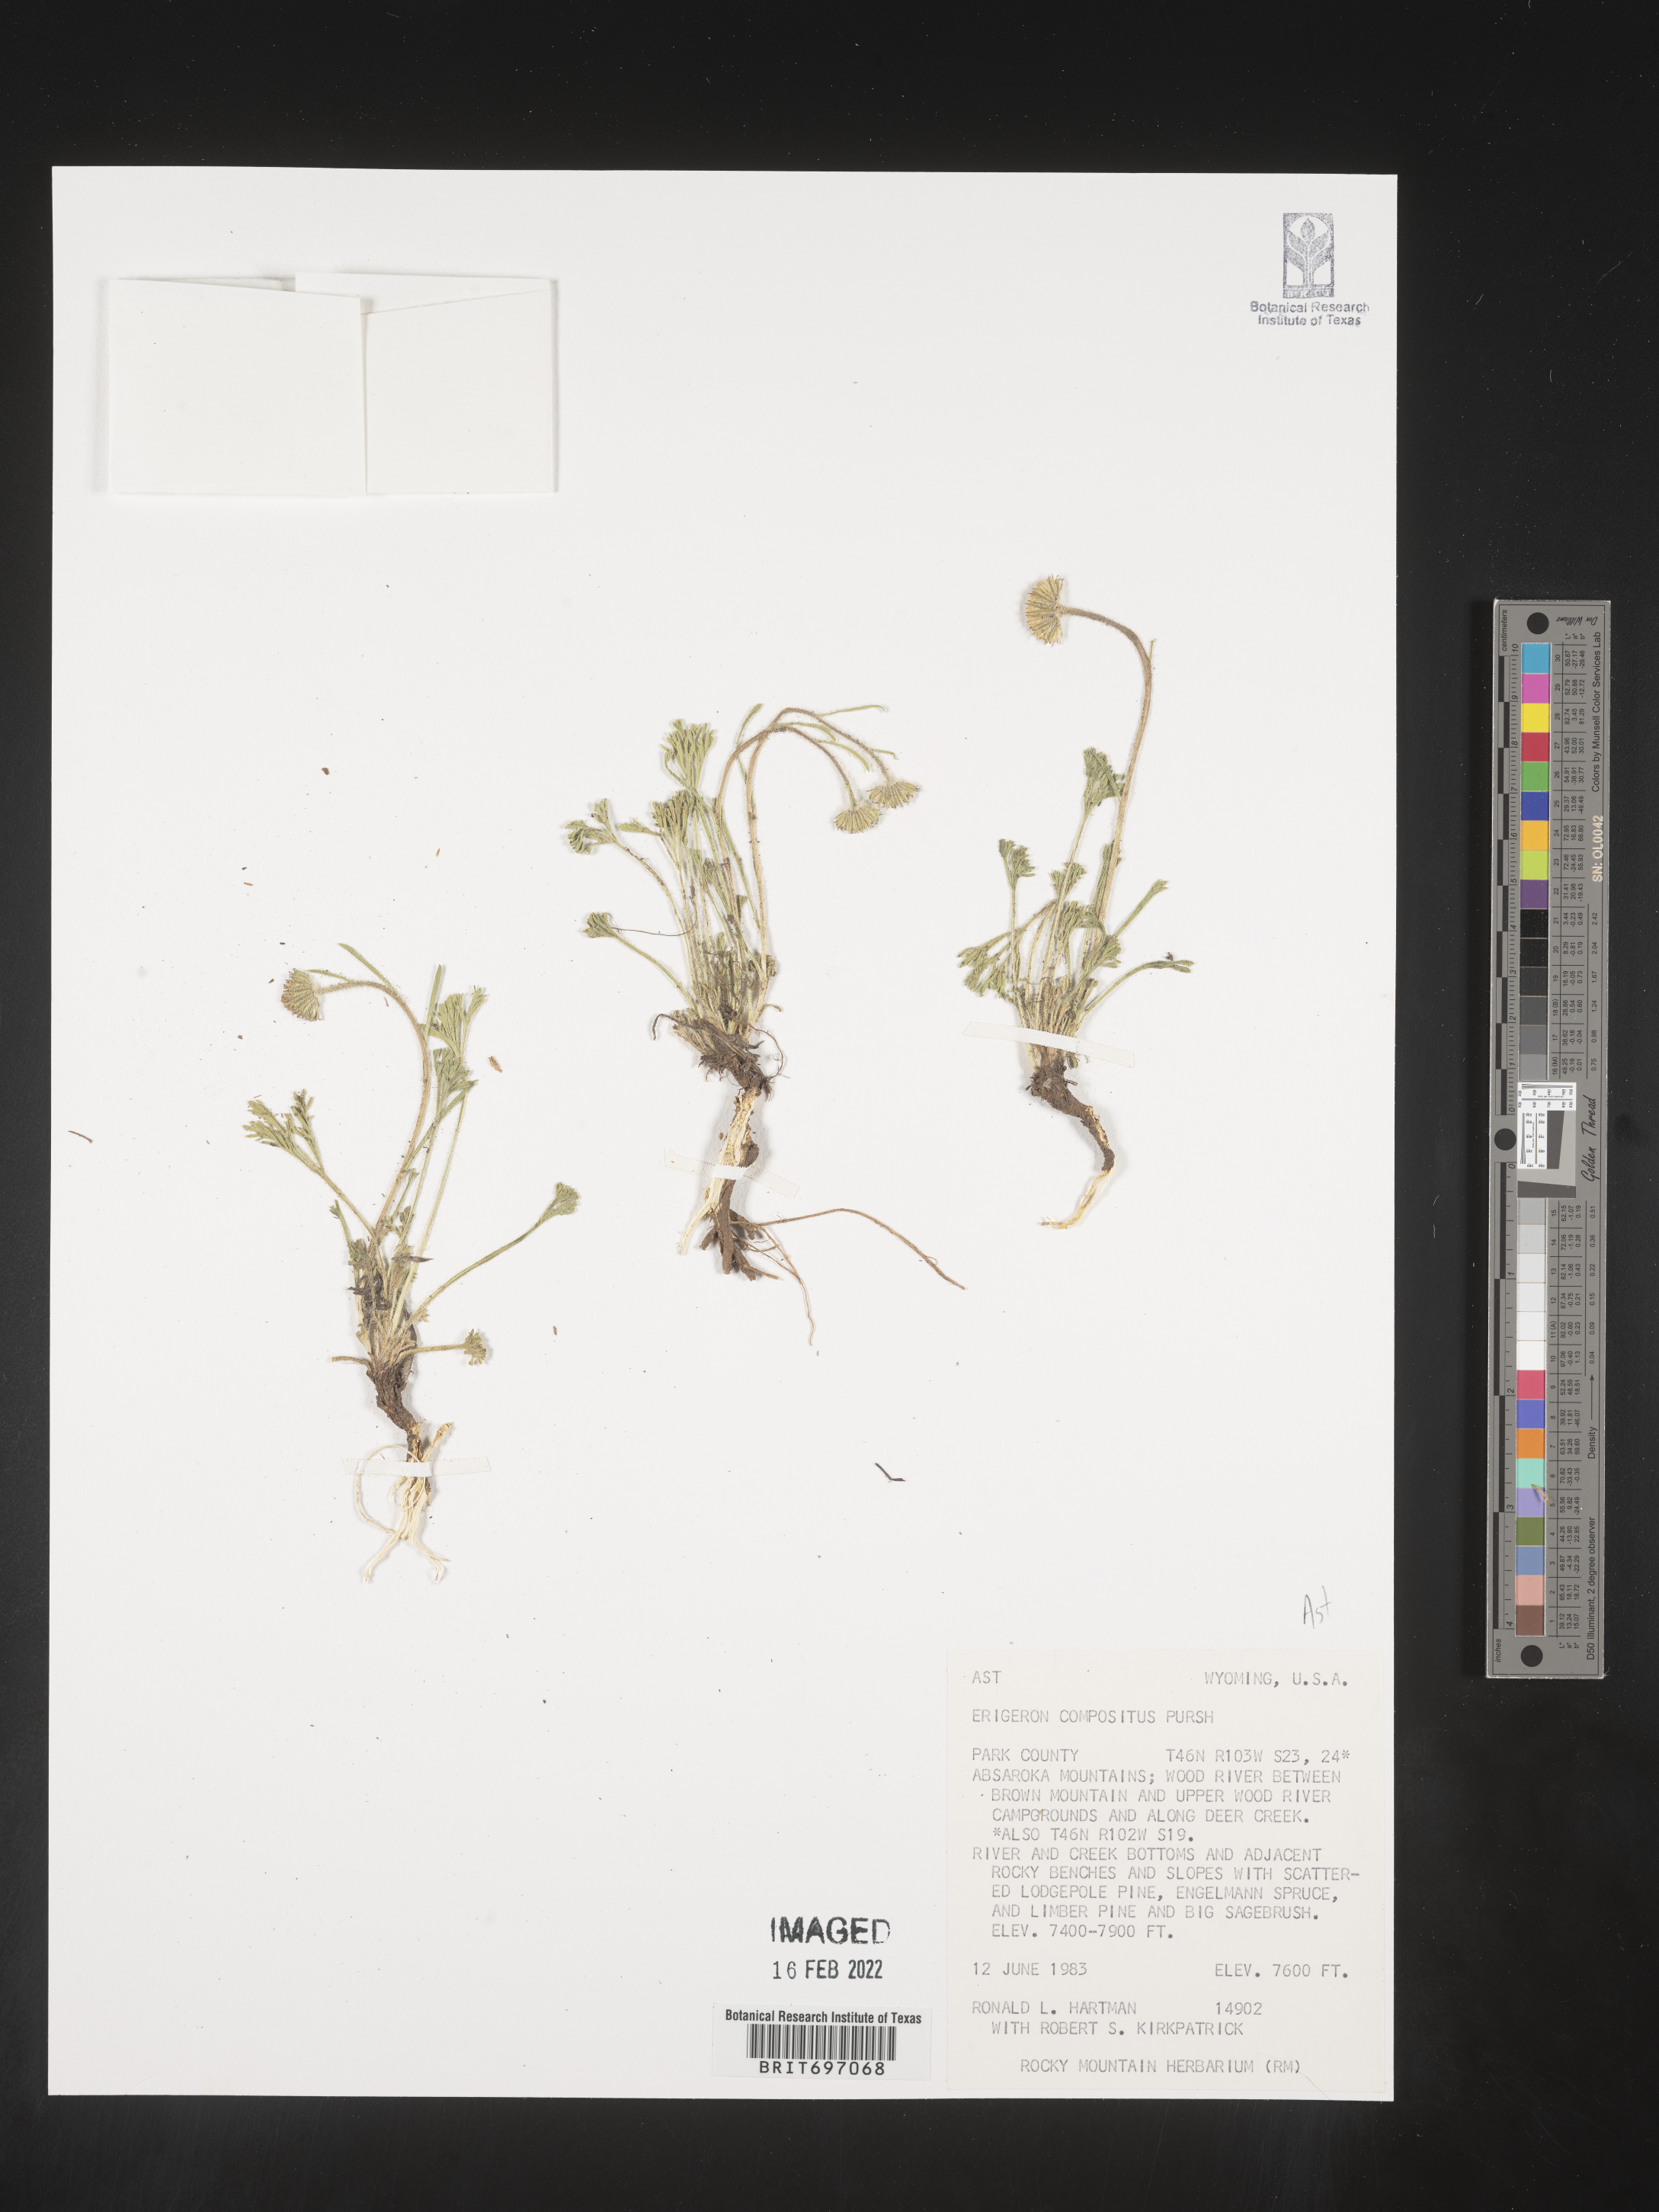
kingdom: Plantae
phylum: Tracheophyta
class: Magnoliopsida
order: Asterales
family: Asteraceae
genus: Erigeron
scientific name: Erigeron compositus
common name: Dwarf mountain fleabane
